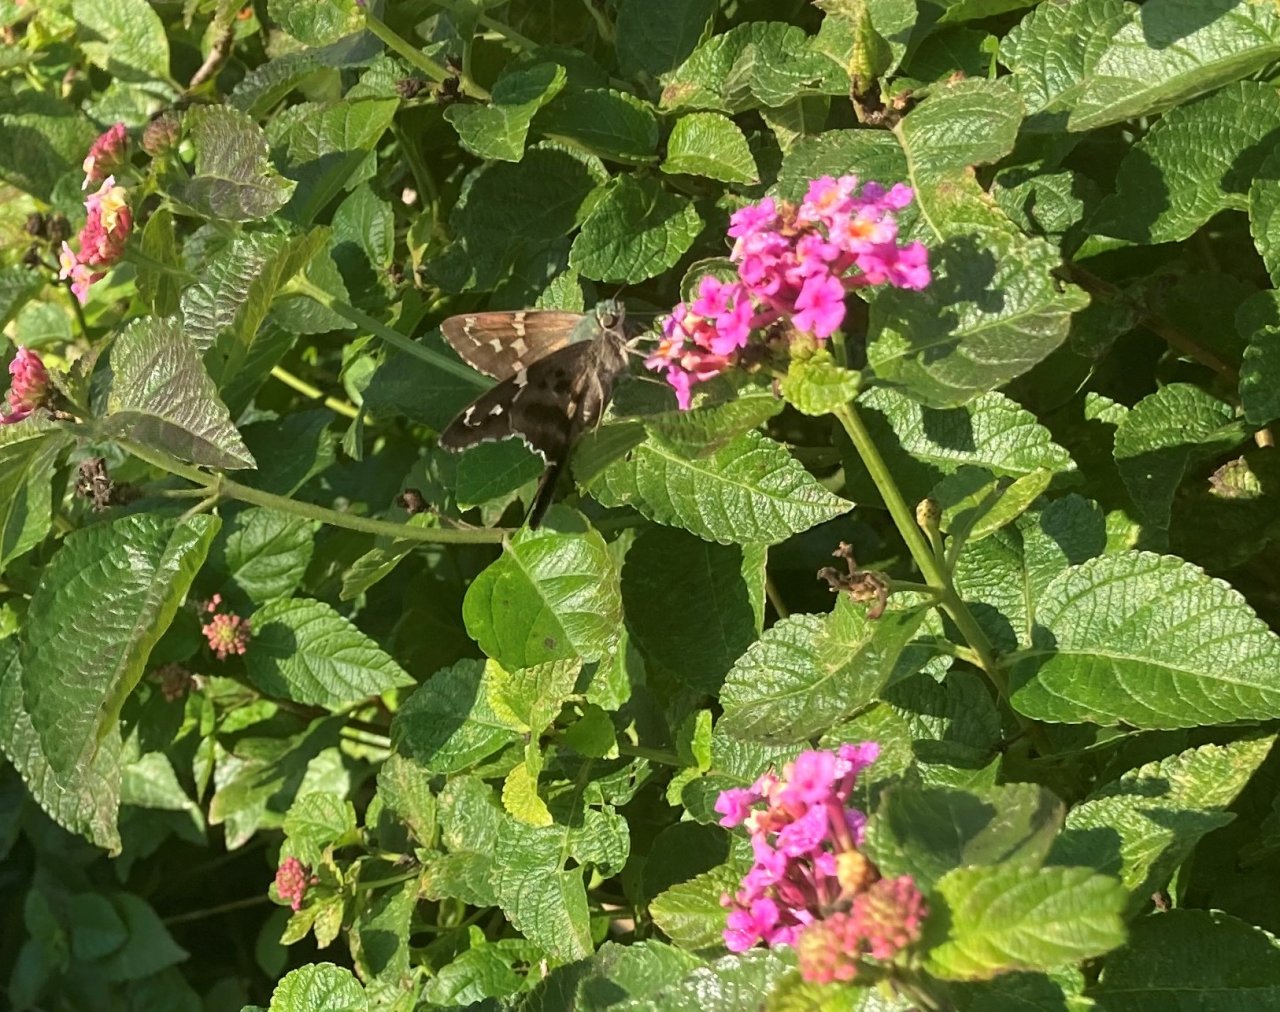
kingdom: Animalia
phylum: Arthropoda
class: Insecta
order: Lepidoptera
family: Hesperiidae
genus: Urbanus
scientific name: Urbanus proteus
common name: Long-tailed Skipper
